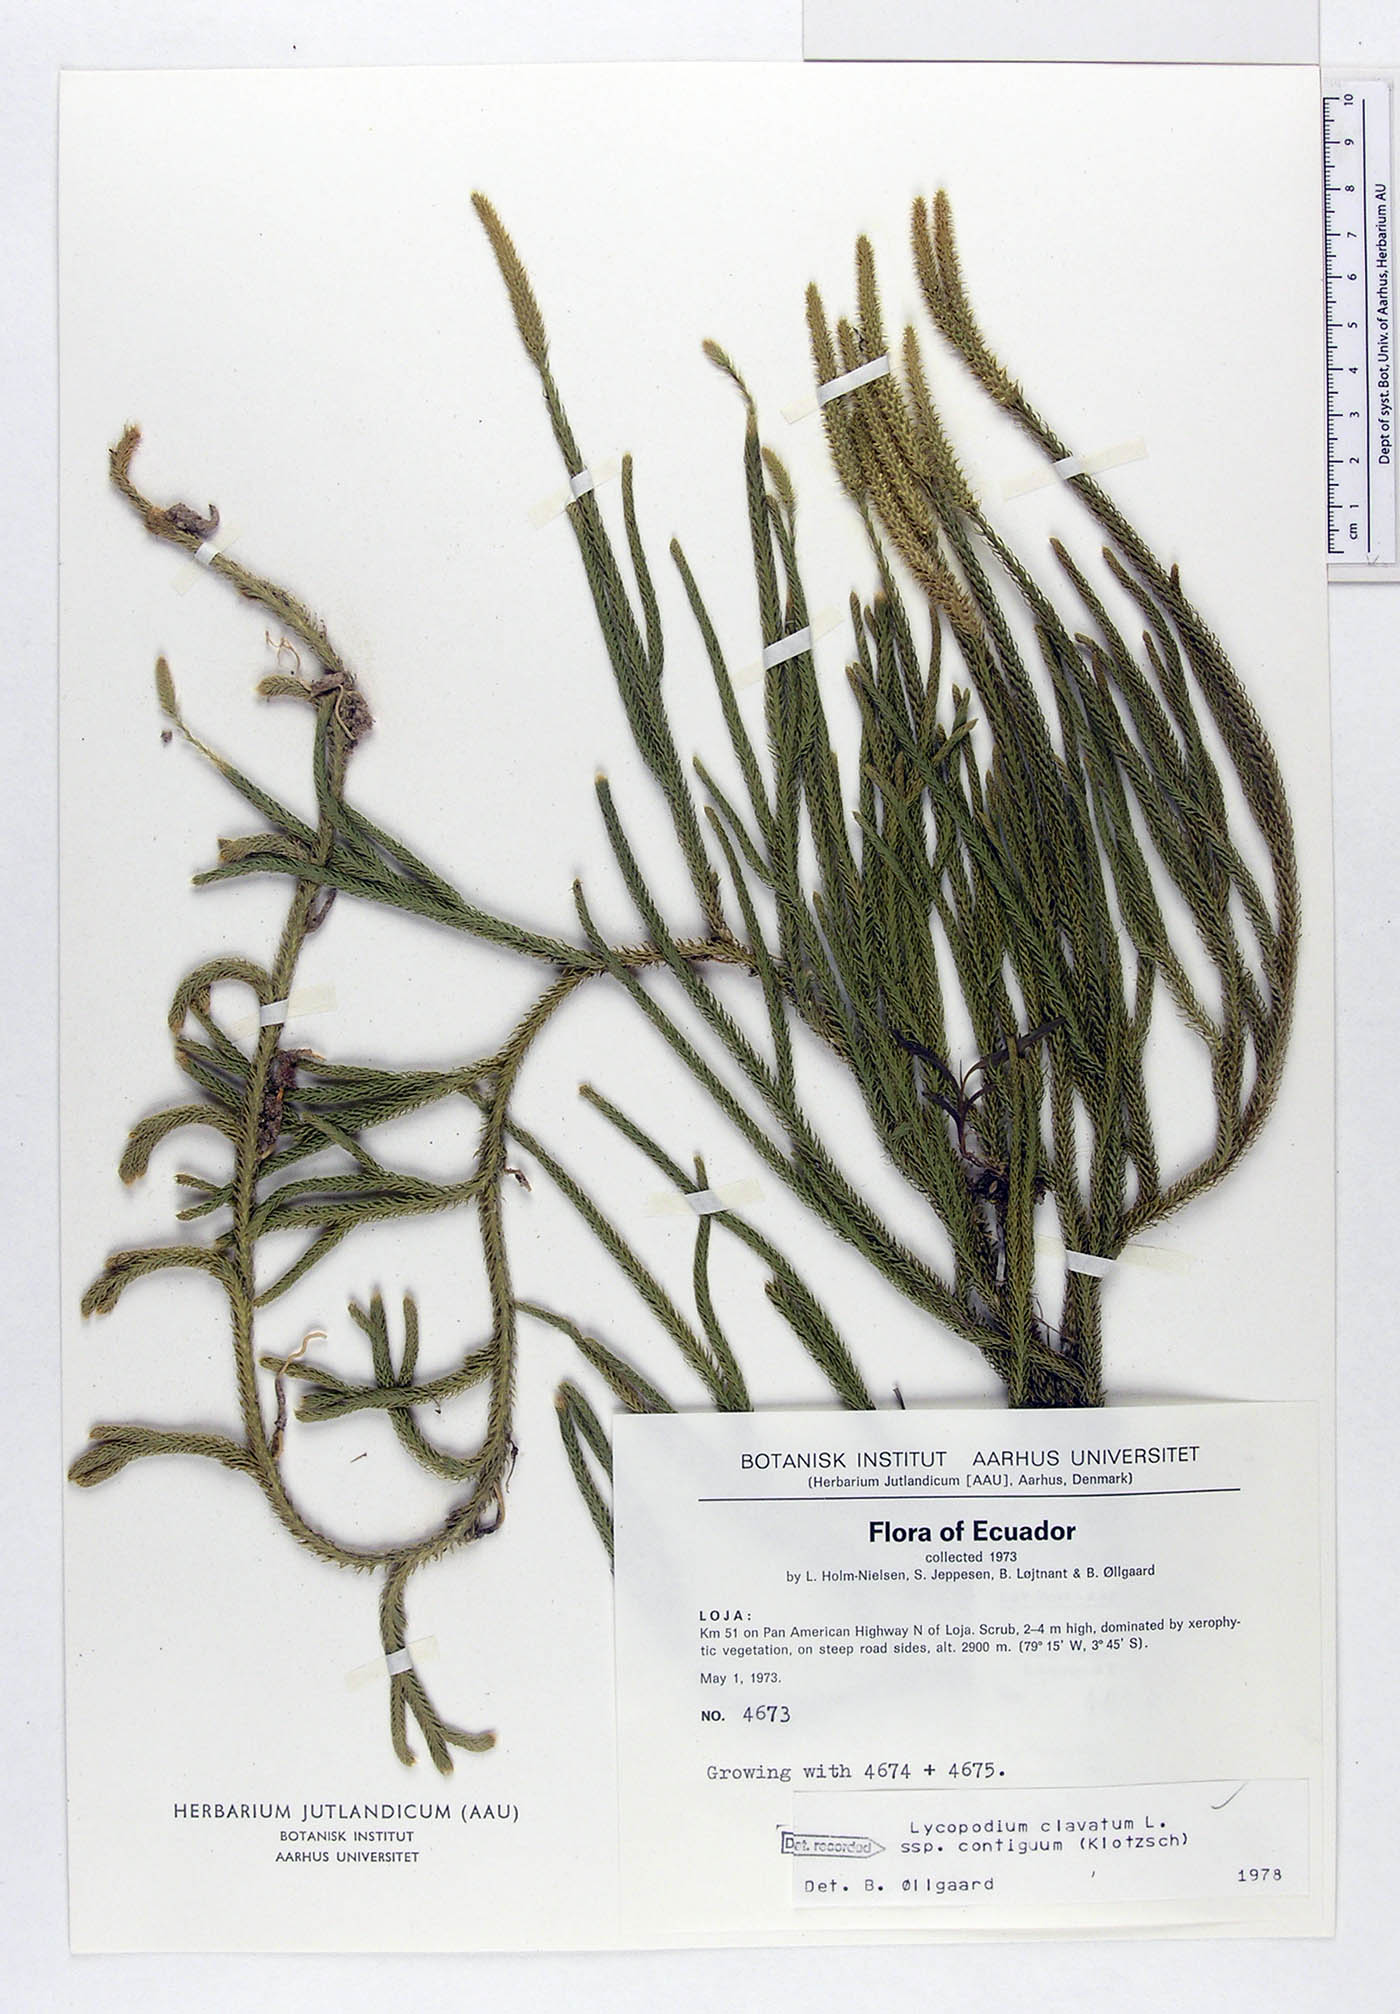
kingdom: Plantae
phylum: Tracheophyta
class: Lycopodiopsida
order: Lycopodiales
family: Lycopodiaceae
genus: Lycopodium
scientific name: Lycopodium clavatum
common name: Stag's-horn clubmoss
